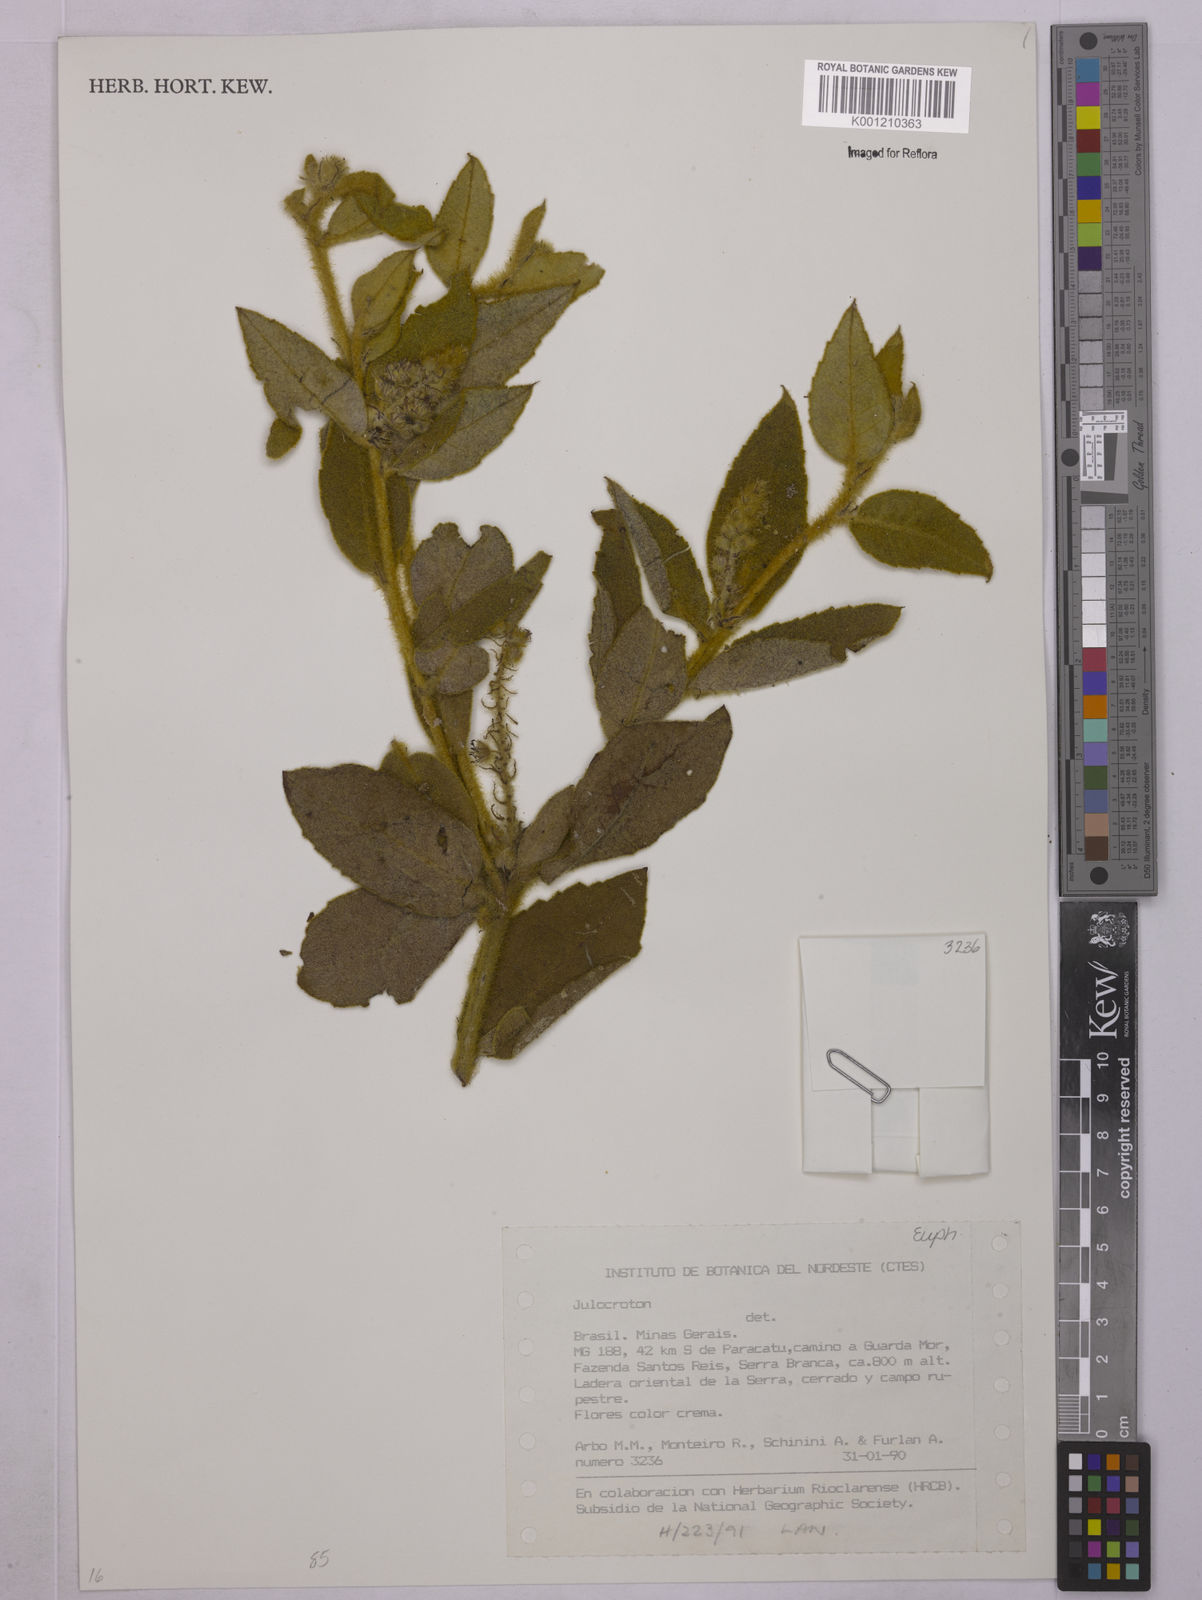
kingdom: Plantae
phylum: Tracheophyta
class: Magnoliopsida
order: Malpighiales
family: Euphorbiaceae
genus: Croton
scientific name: Croton
